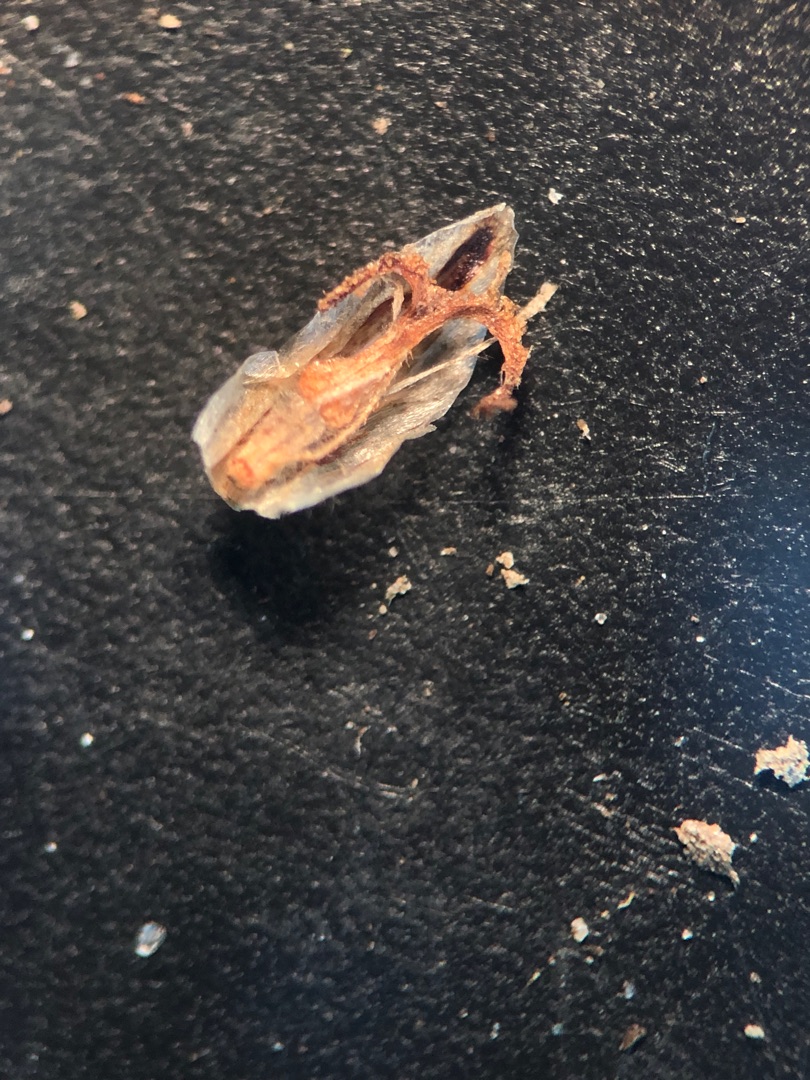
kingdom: Plantae
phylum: Tracheophyta
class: Liliopsida
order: Poales
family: Cyperaceae
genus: Eleocharis
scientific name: Eleocharis uniglumis
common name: Enskællet sumpstrå
